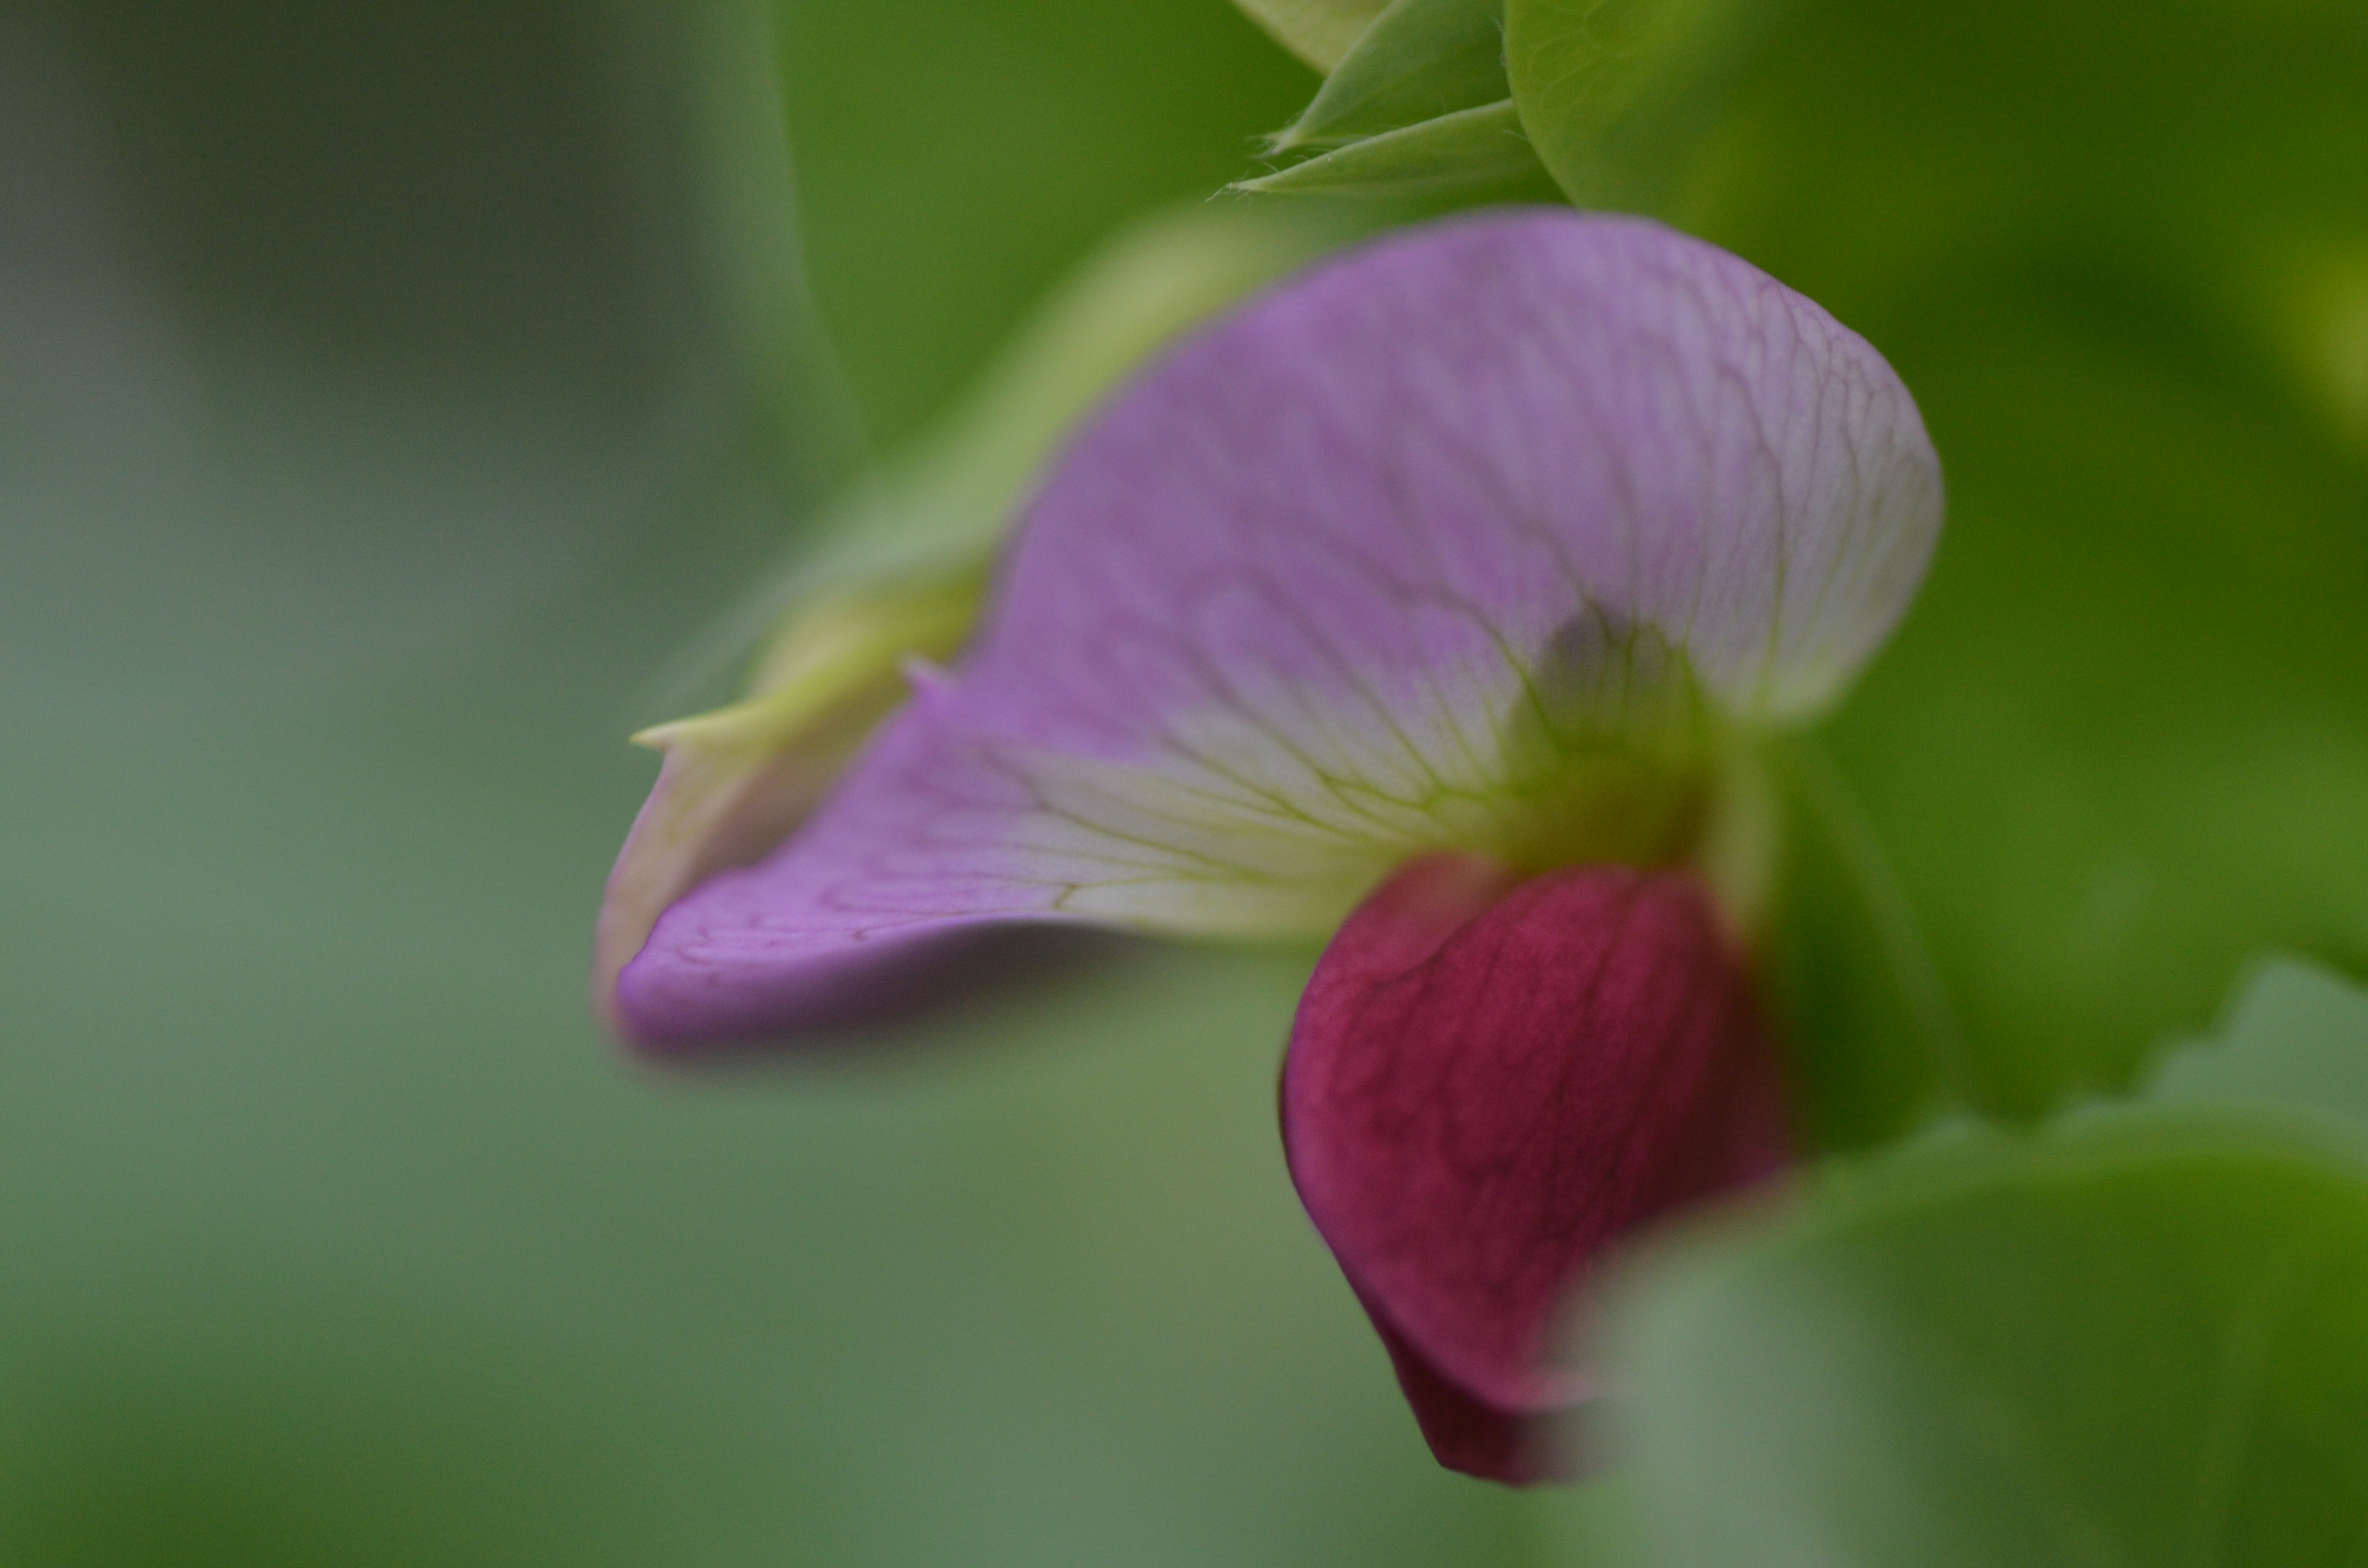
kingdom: Plantae
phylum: Tracheophyta
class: Magnoliopsida
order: Fabales
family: Fabaceae
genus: Lathyrus
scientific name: Lathyrus oleraceus
